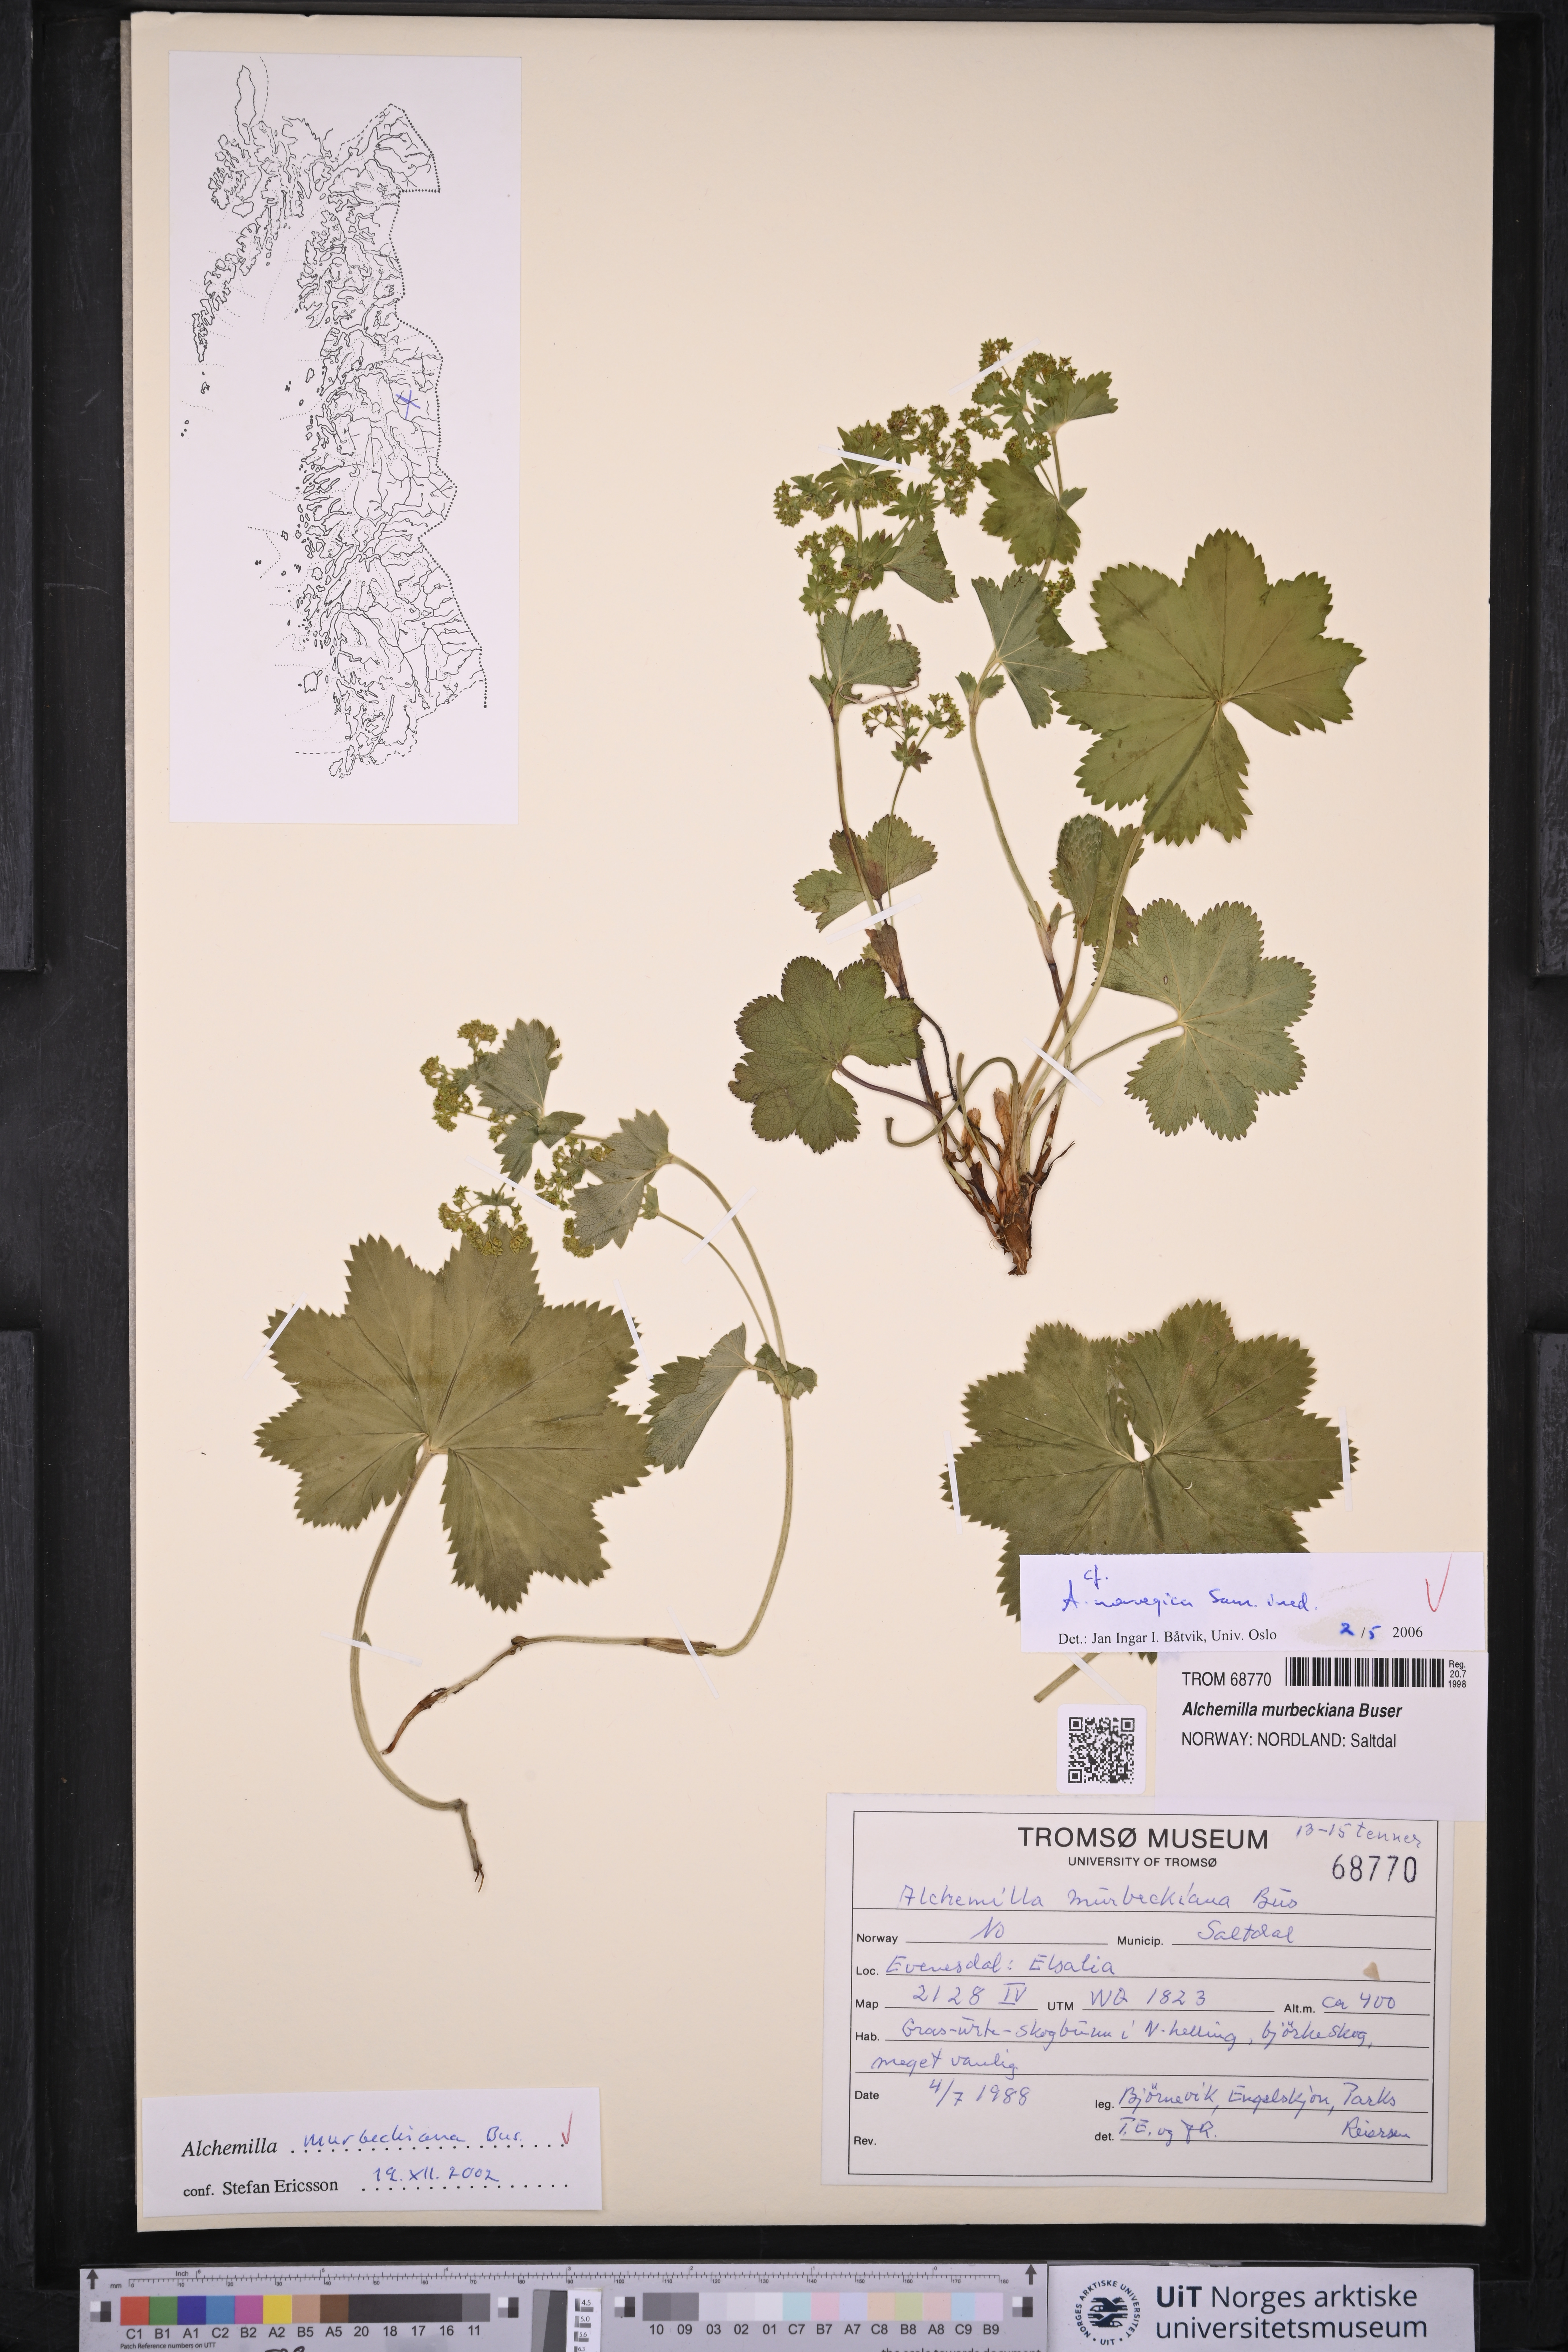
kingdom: Plantae
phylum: Tracheophyta
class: Magnoliopsida
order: Rosales
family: Rosaceae
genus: Alchemilla
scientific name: Alchemilla norvegica
